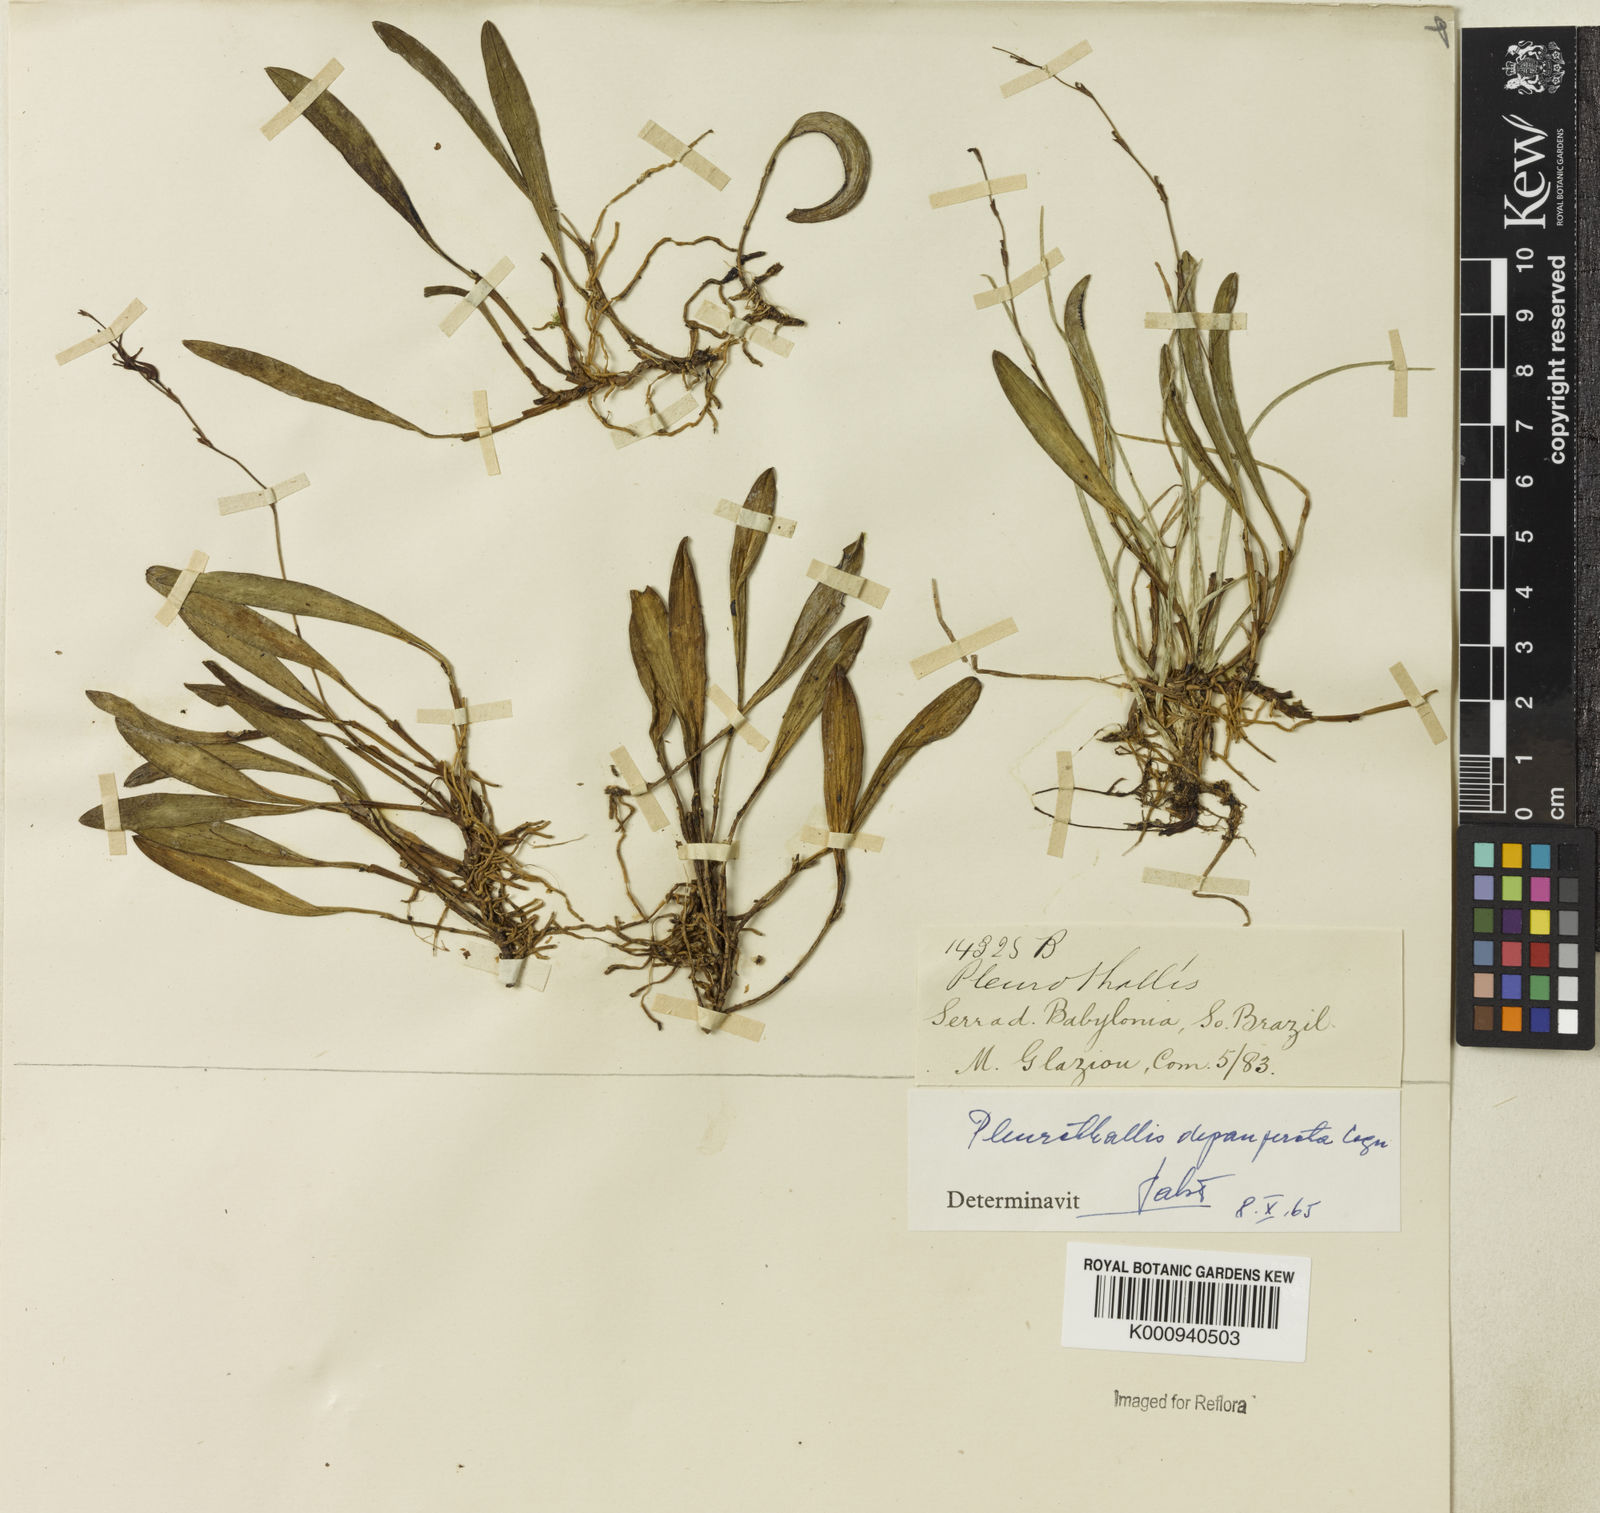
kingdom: Plantae
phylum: Tracheophyta
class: Liliopsida
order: Asparagales
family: Orchidaceae
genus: Anathallis
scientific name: Anathallis
